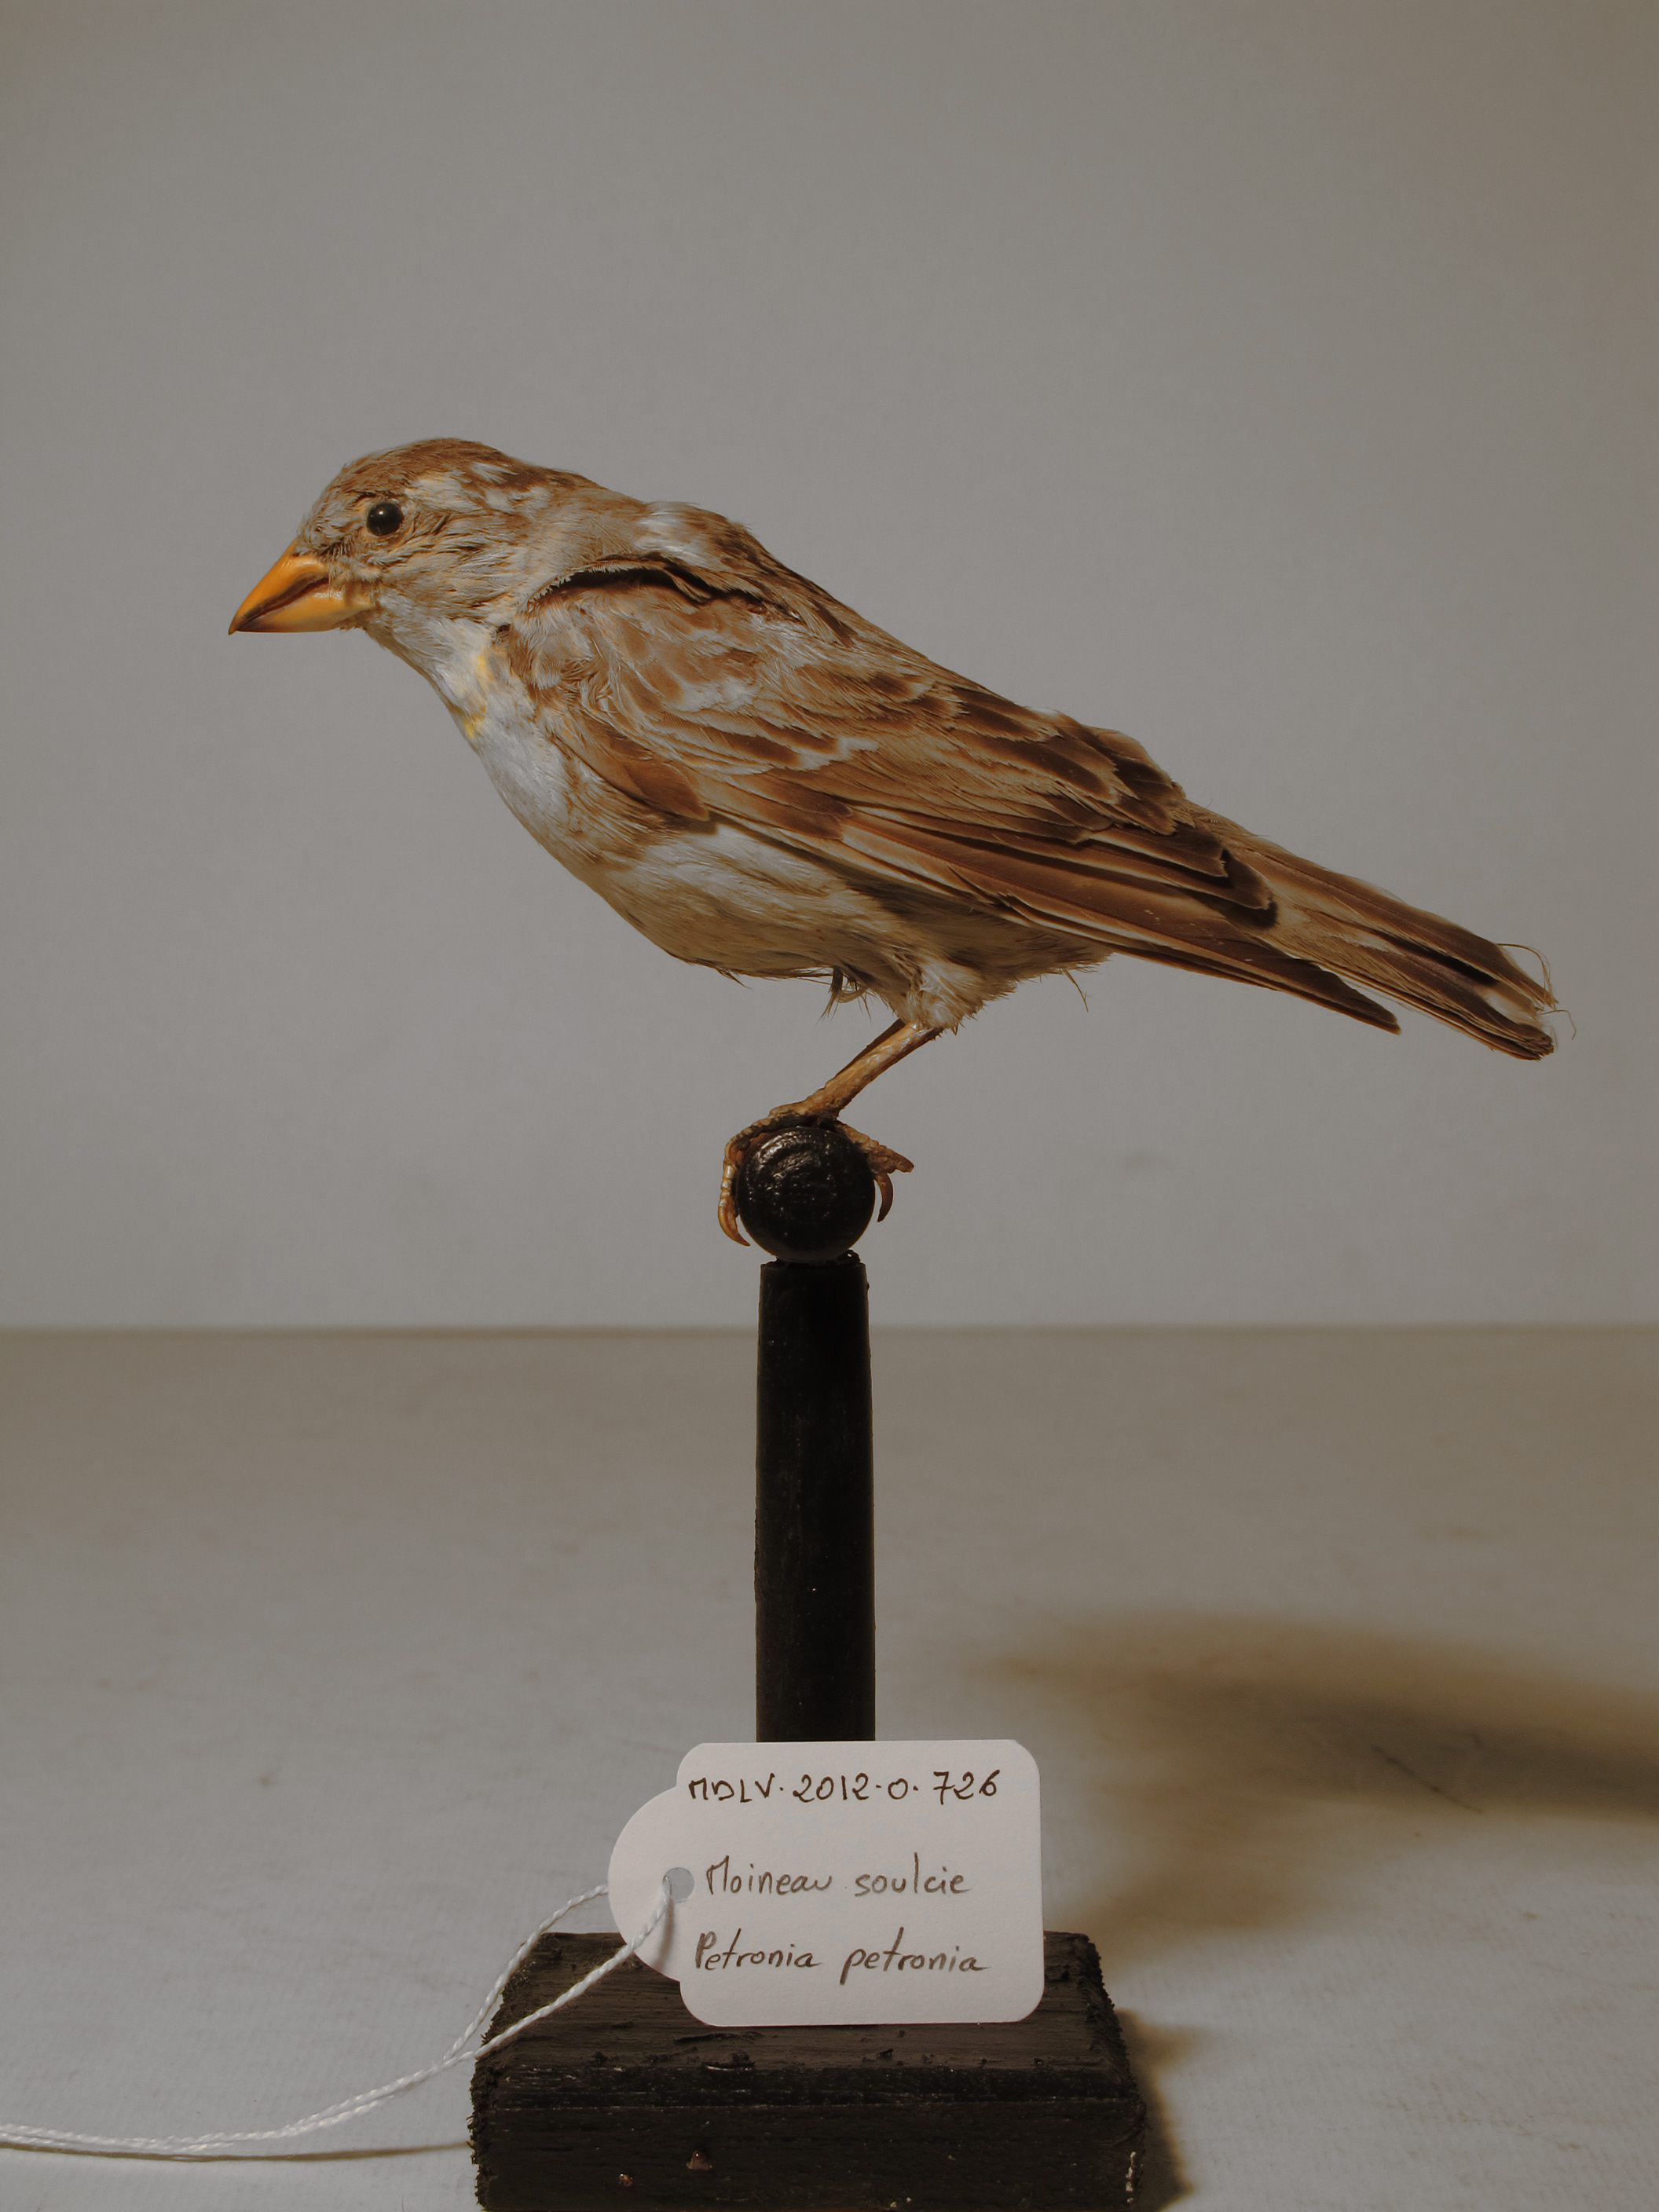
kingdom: Animalia
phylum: Chordata
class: Aves
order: Passeriformes
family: Passeridae
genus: Petronia
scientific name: Petronia petronia
